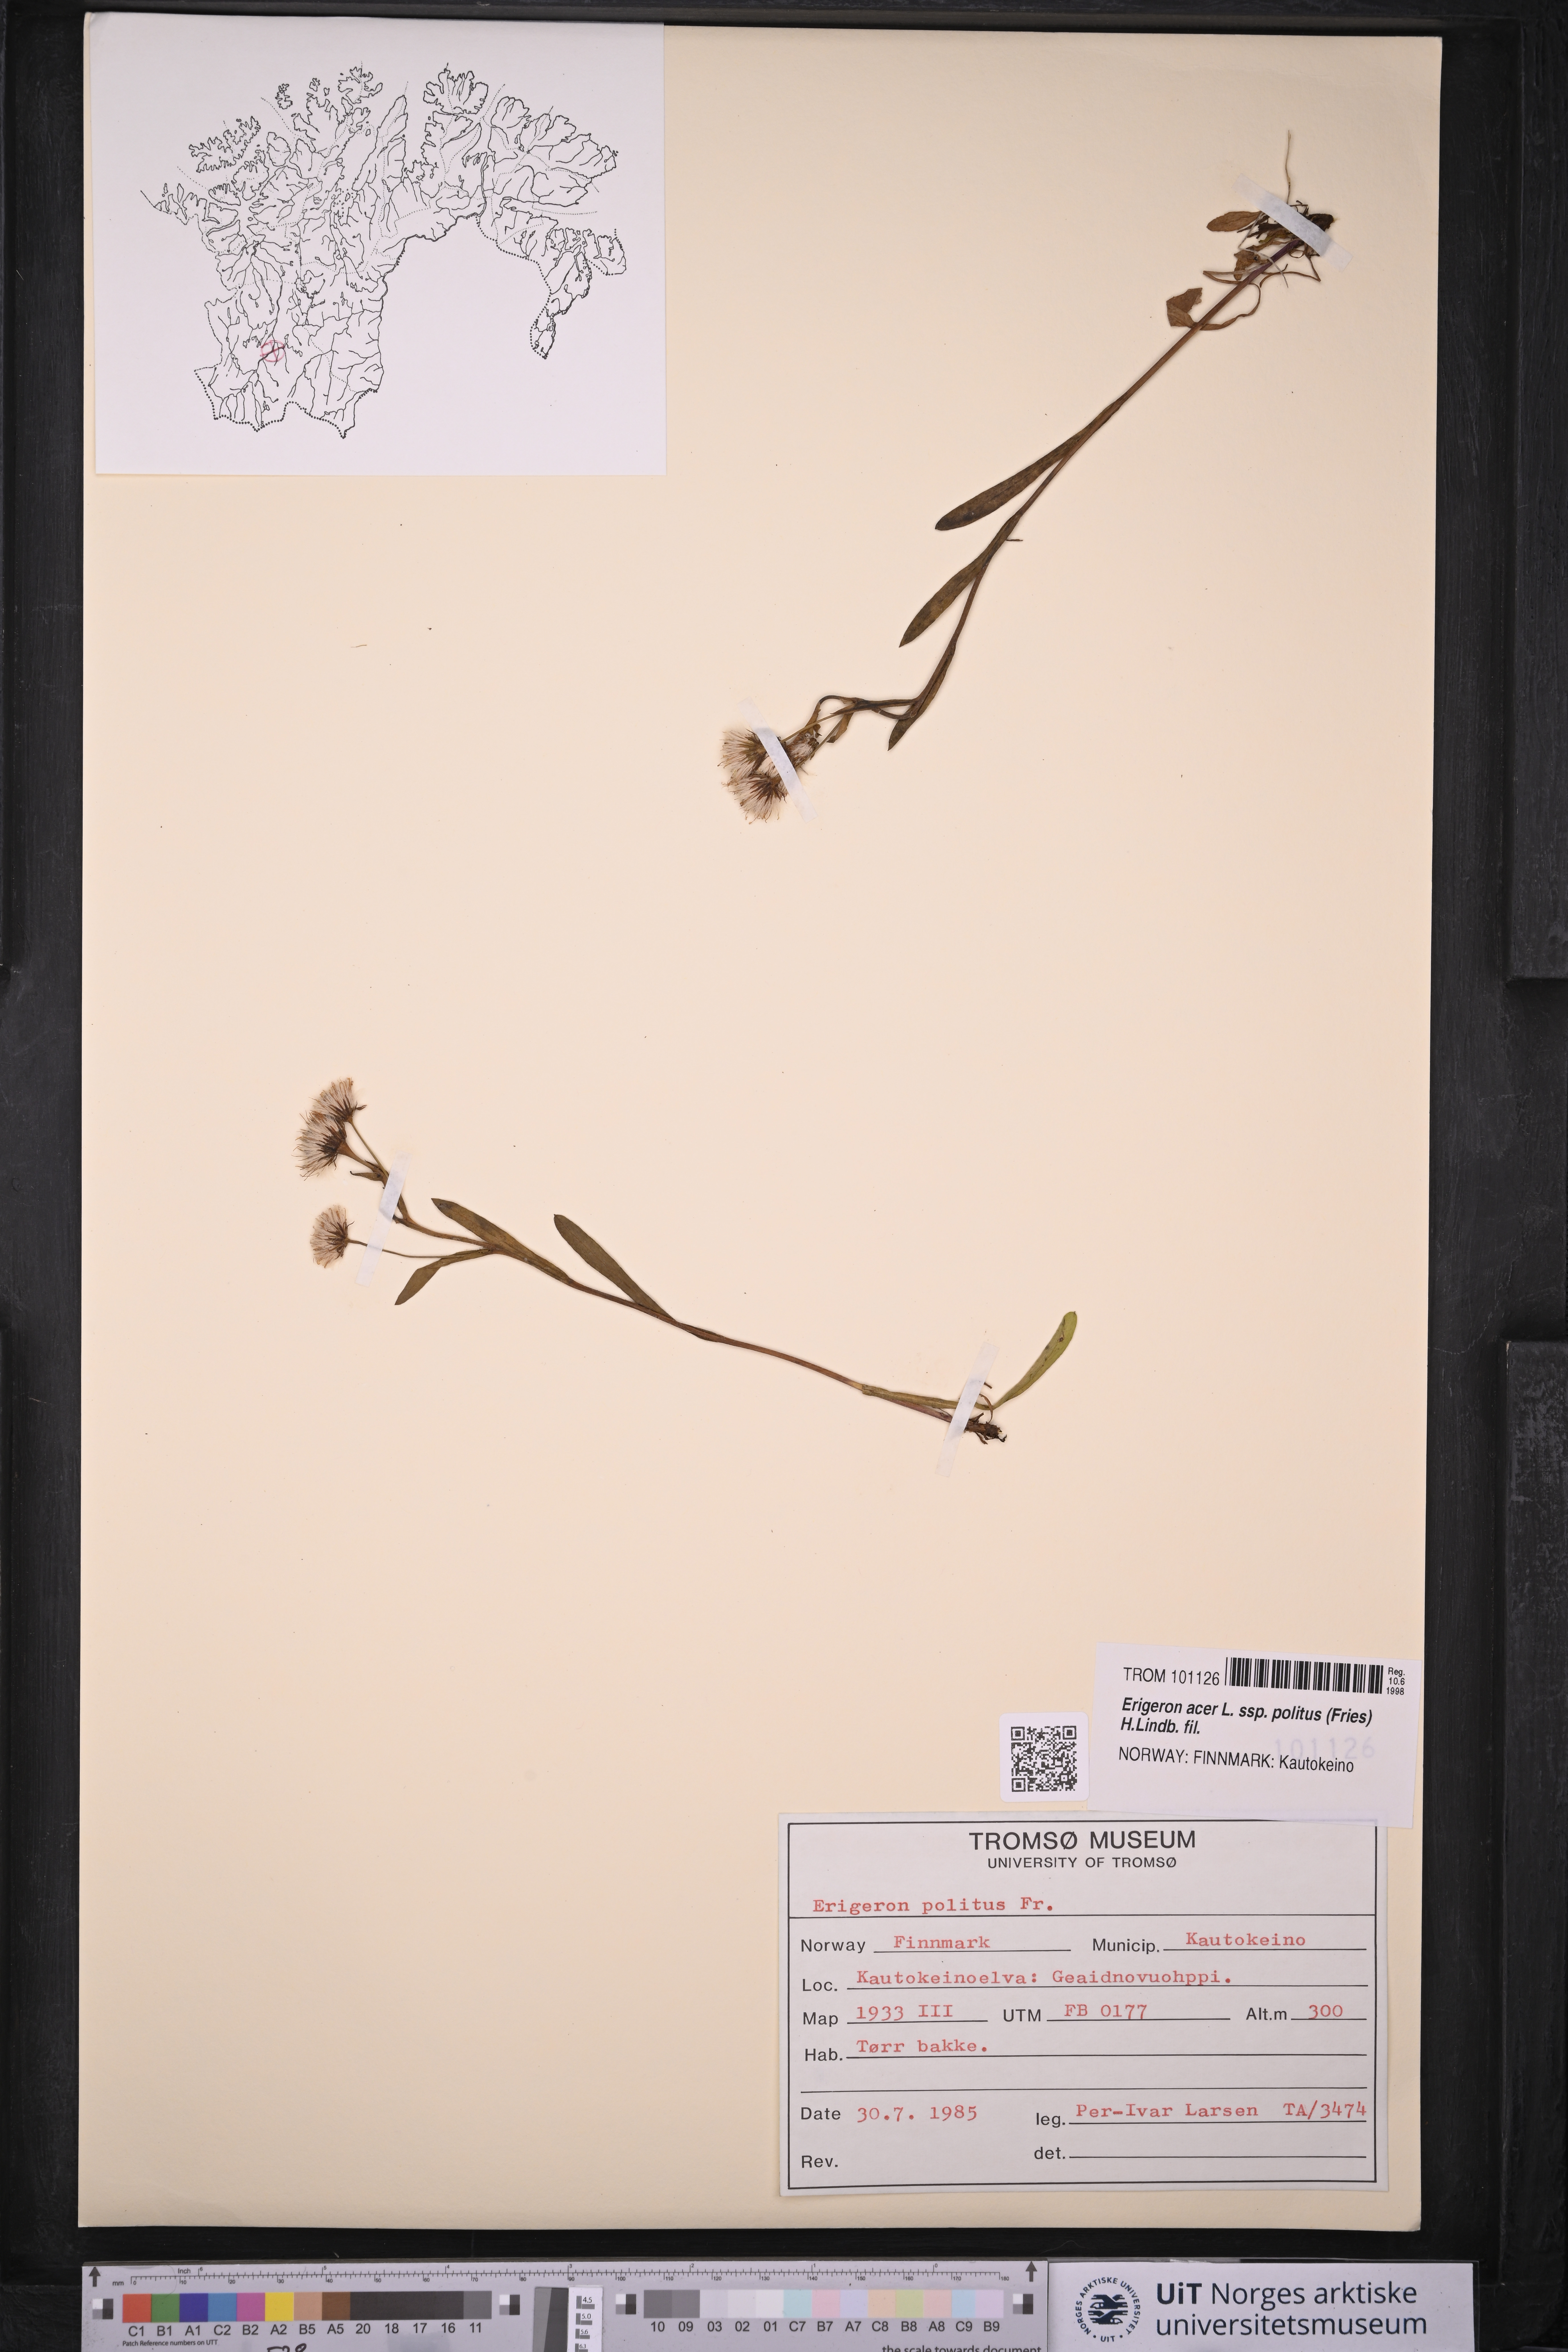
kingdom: Plantae
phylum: Tracheophyta
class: Magnoliopsida
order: Asterales
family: Asteraceae
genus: Erigeron
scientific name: Erigeron politus
